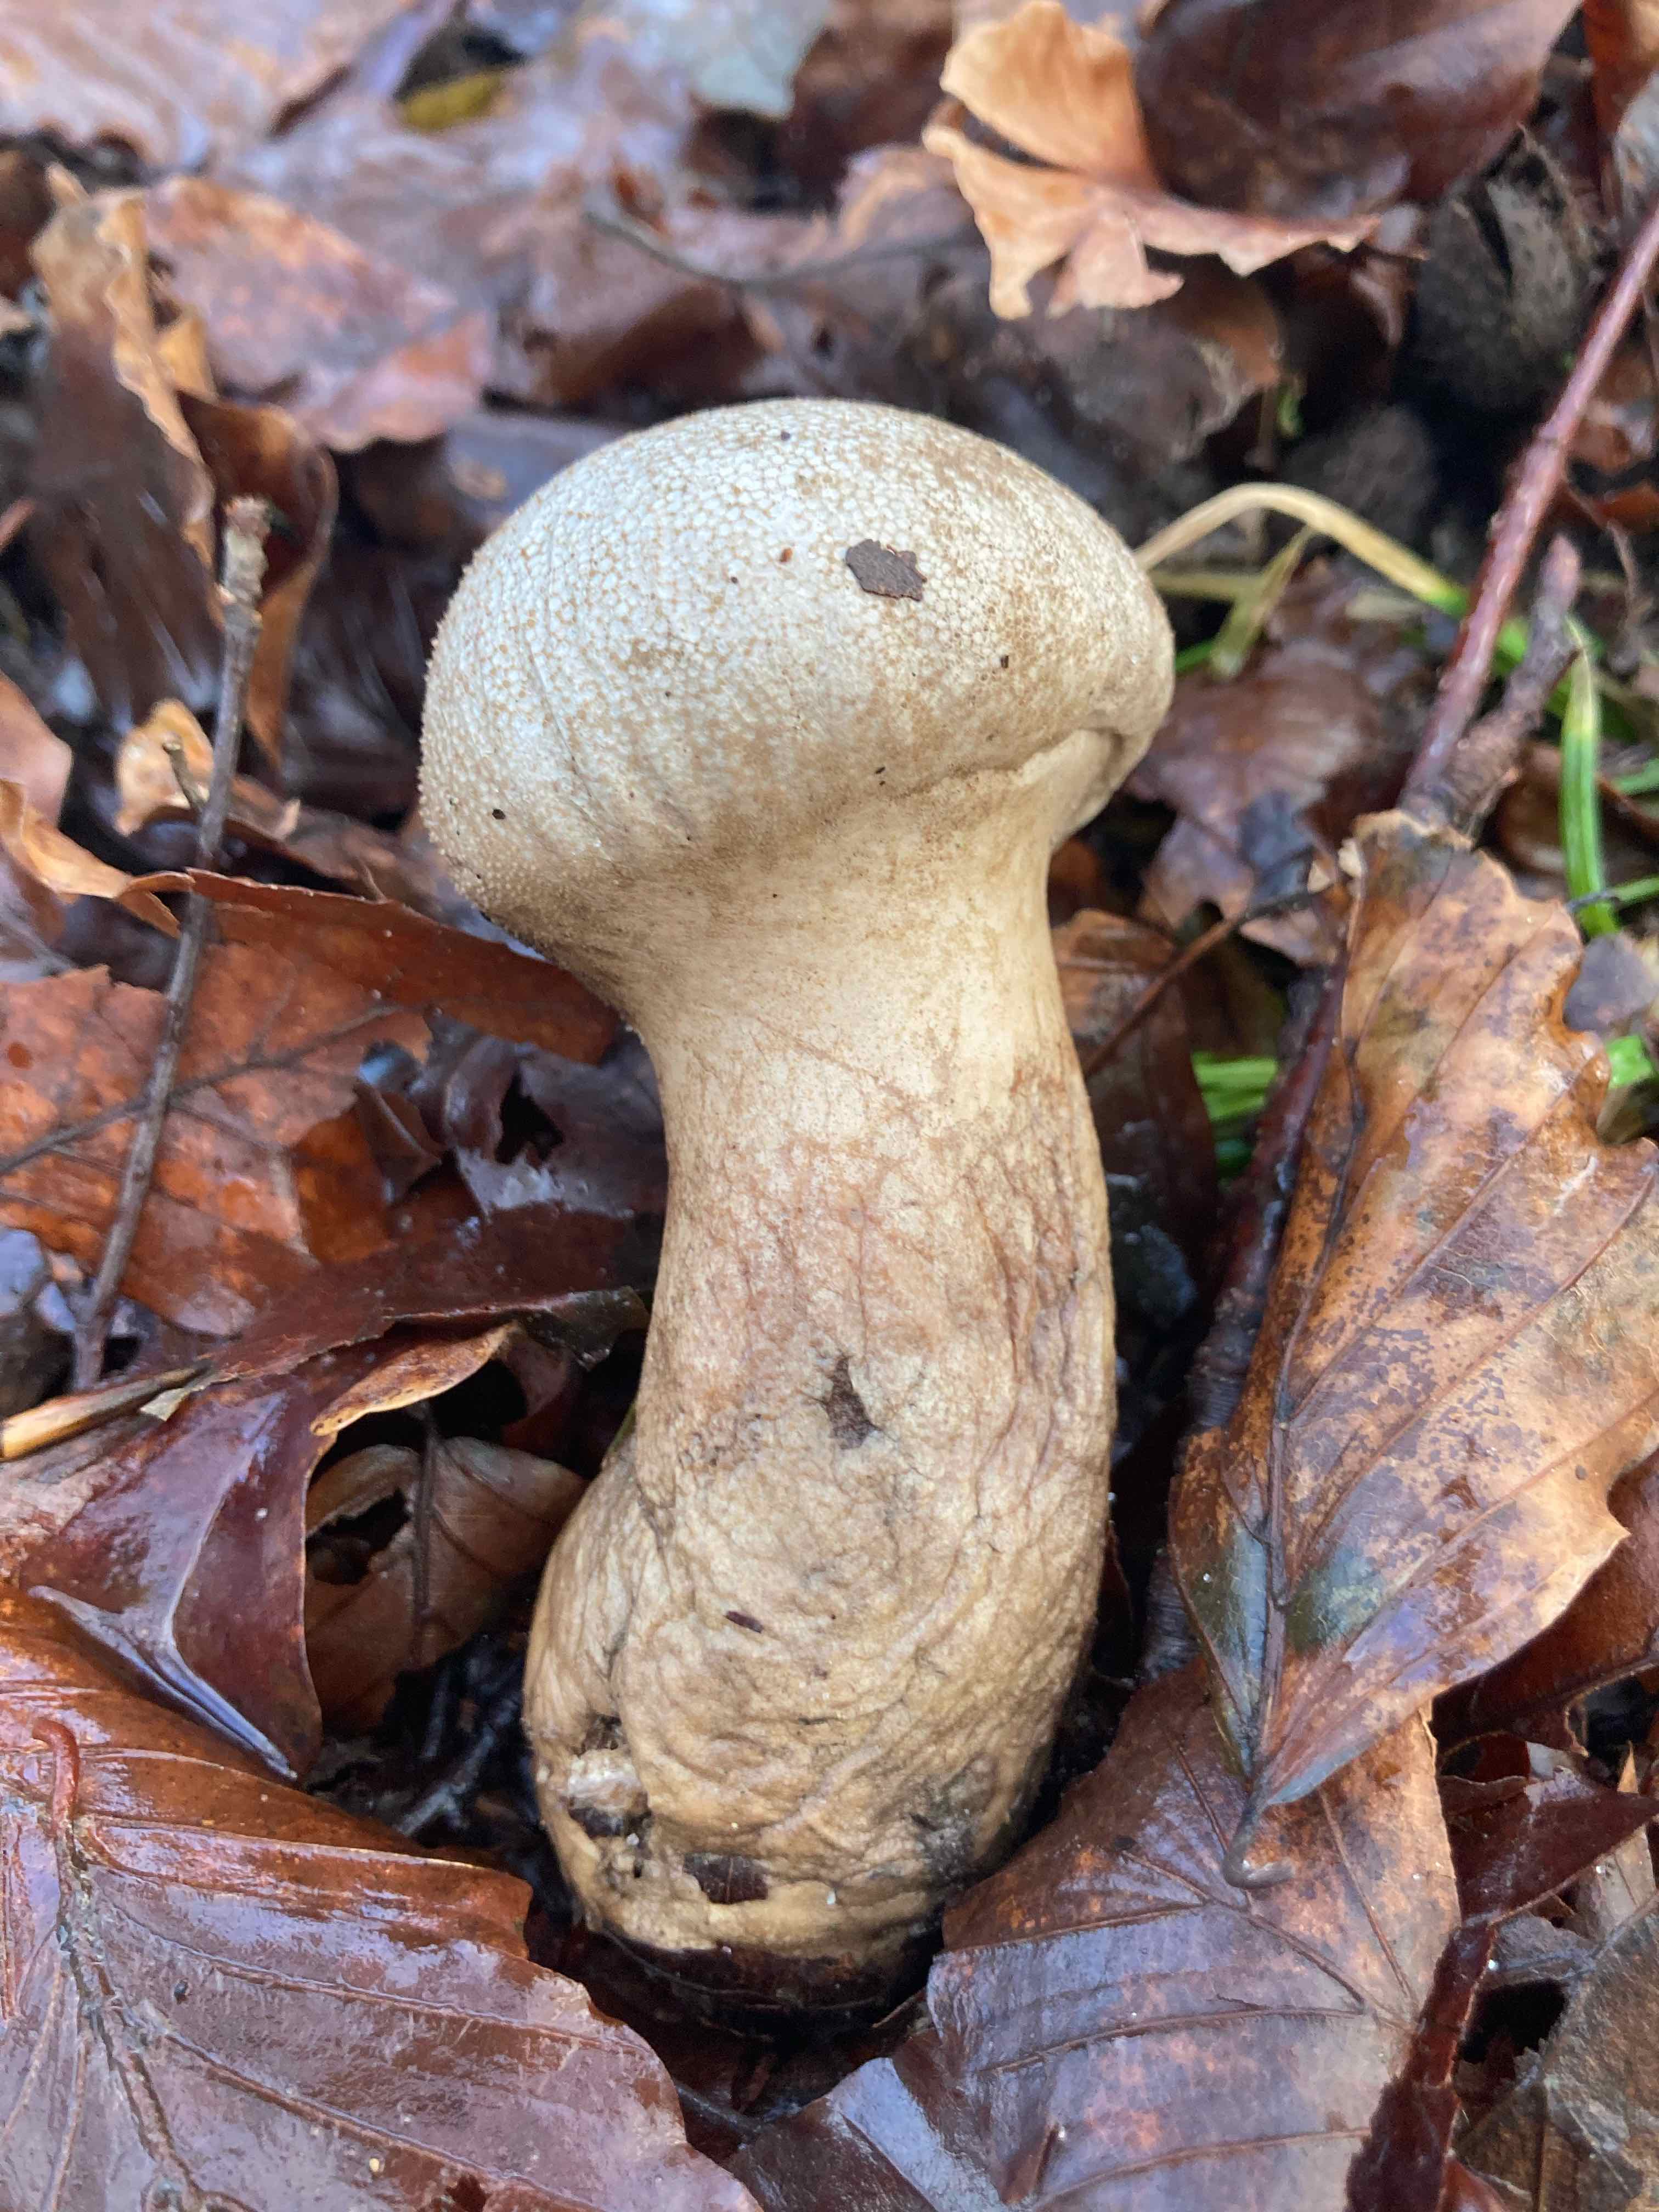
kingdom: Fungi
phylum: Basidiomycota
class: Agaricomycetes
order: Agaricales
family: Lycoperdaceae
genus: Lycoperdon
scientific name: Lycoperdon perlatum
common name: krystal-støvbold
